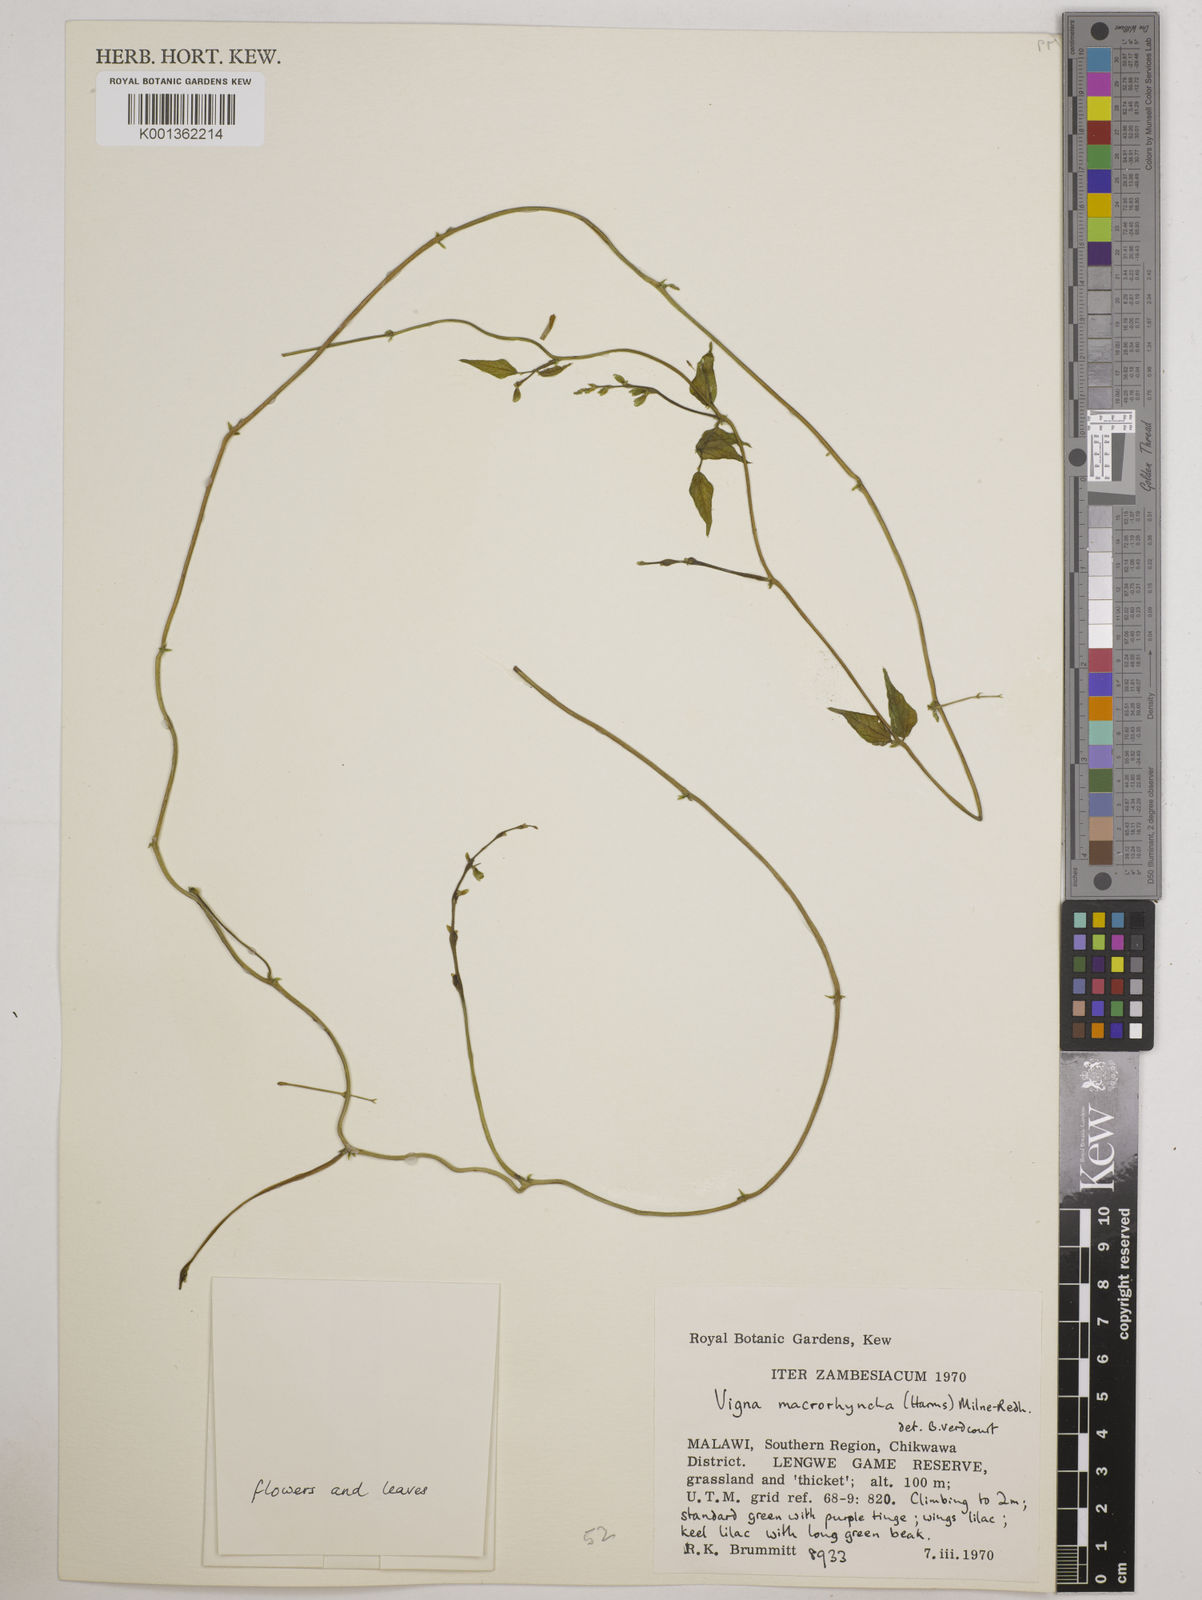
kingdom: Plantae
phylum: Tracheophyta
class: Magnoliopsida
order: Fabales
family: Fabaceae
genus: Wajira
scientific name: Wajira grahamiana
